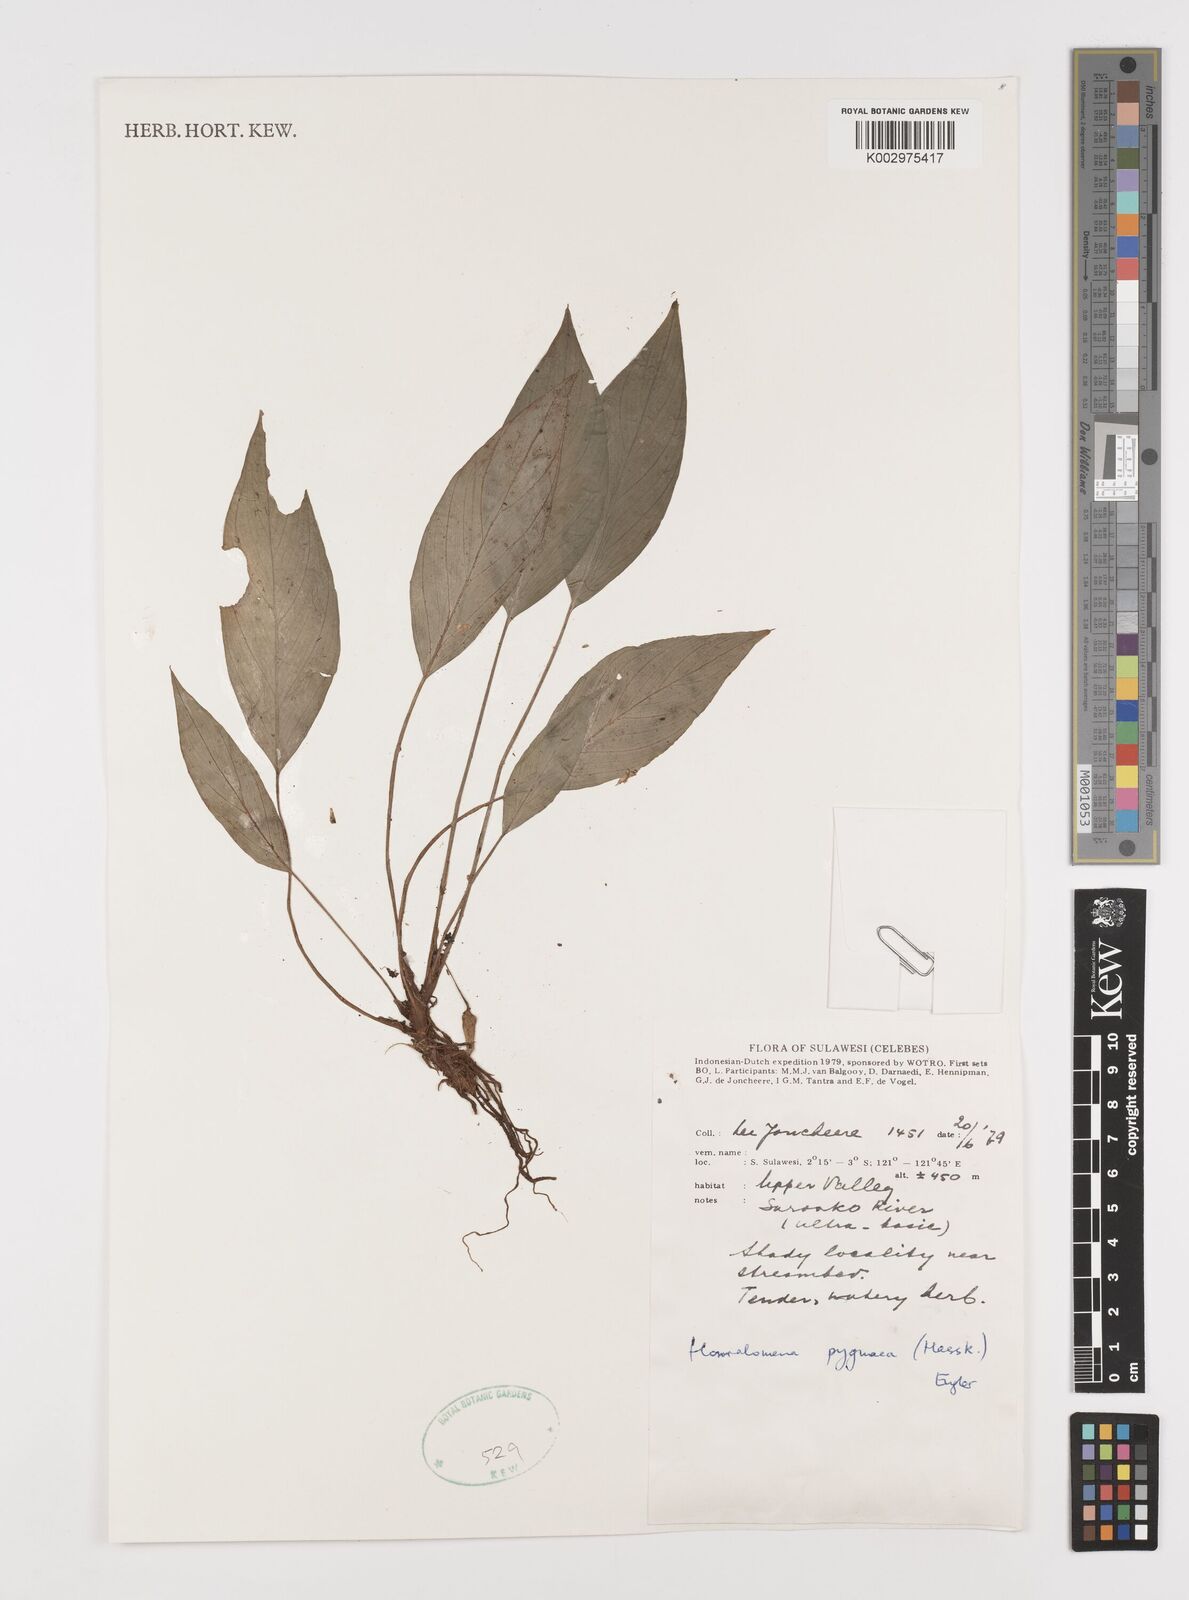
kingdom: Plantae
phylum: Tracheophyta
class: Liliopsida
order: Alismatales
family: Araceae
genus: Homalomena
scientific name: Homalomena humilis
